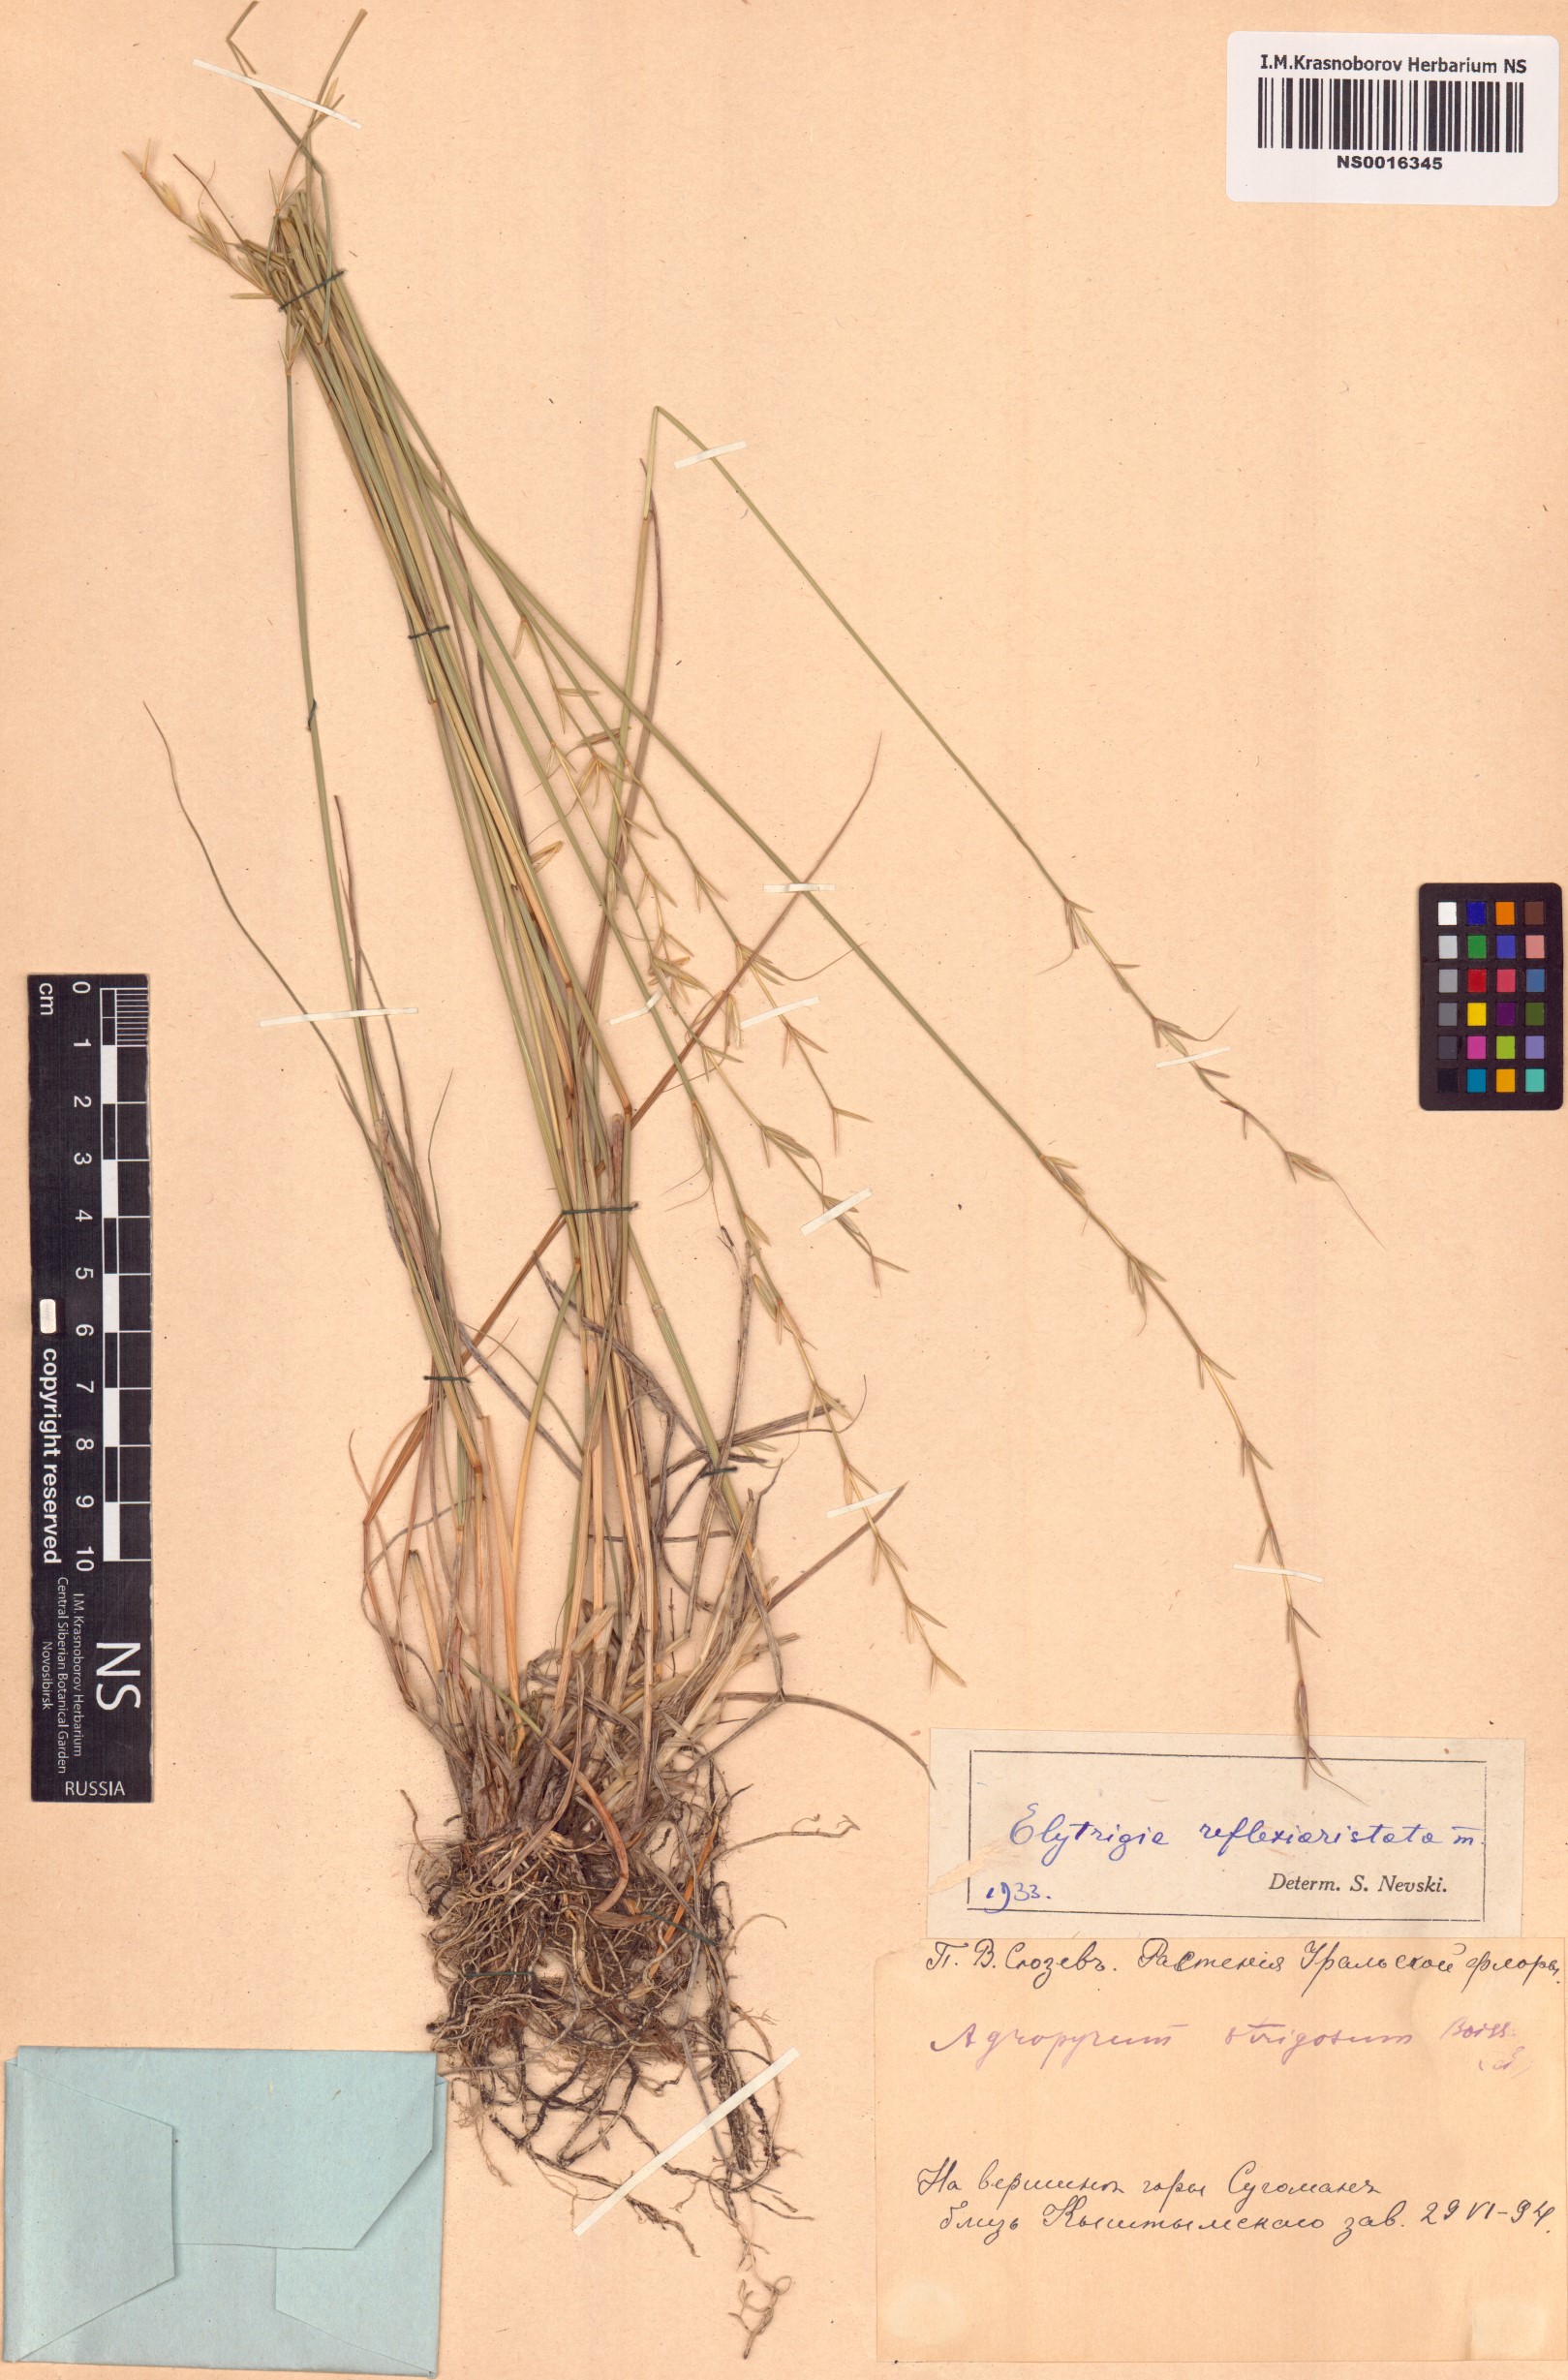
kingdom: Plantae
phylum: Tracheophyta
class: Liliopsida
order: Poales
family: Poaceae
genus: Pseudoroegneria
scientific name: Pseudoroegneria reflexiaristata
